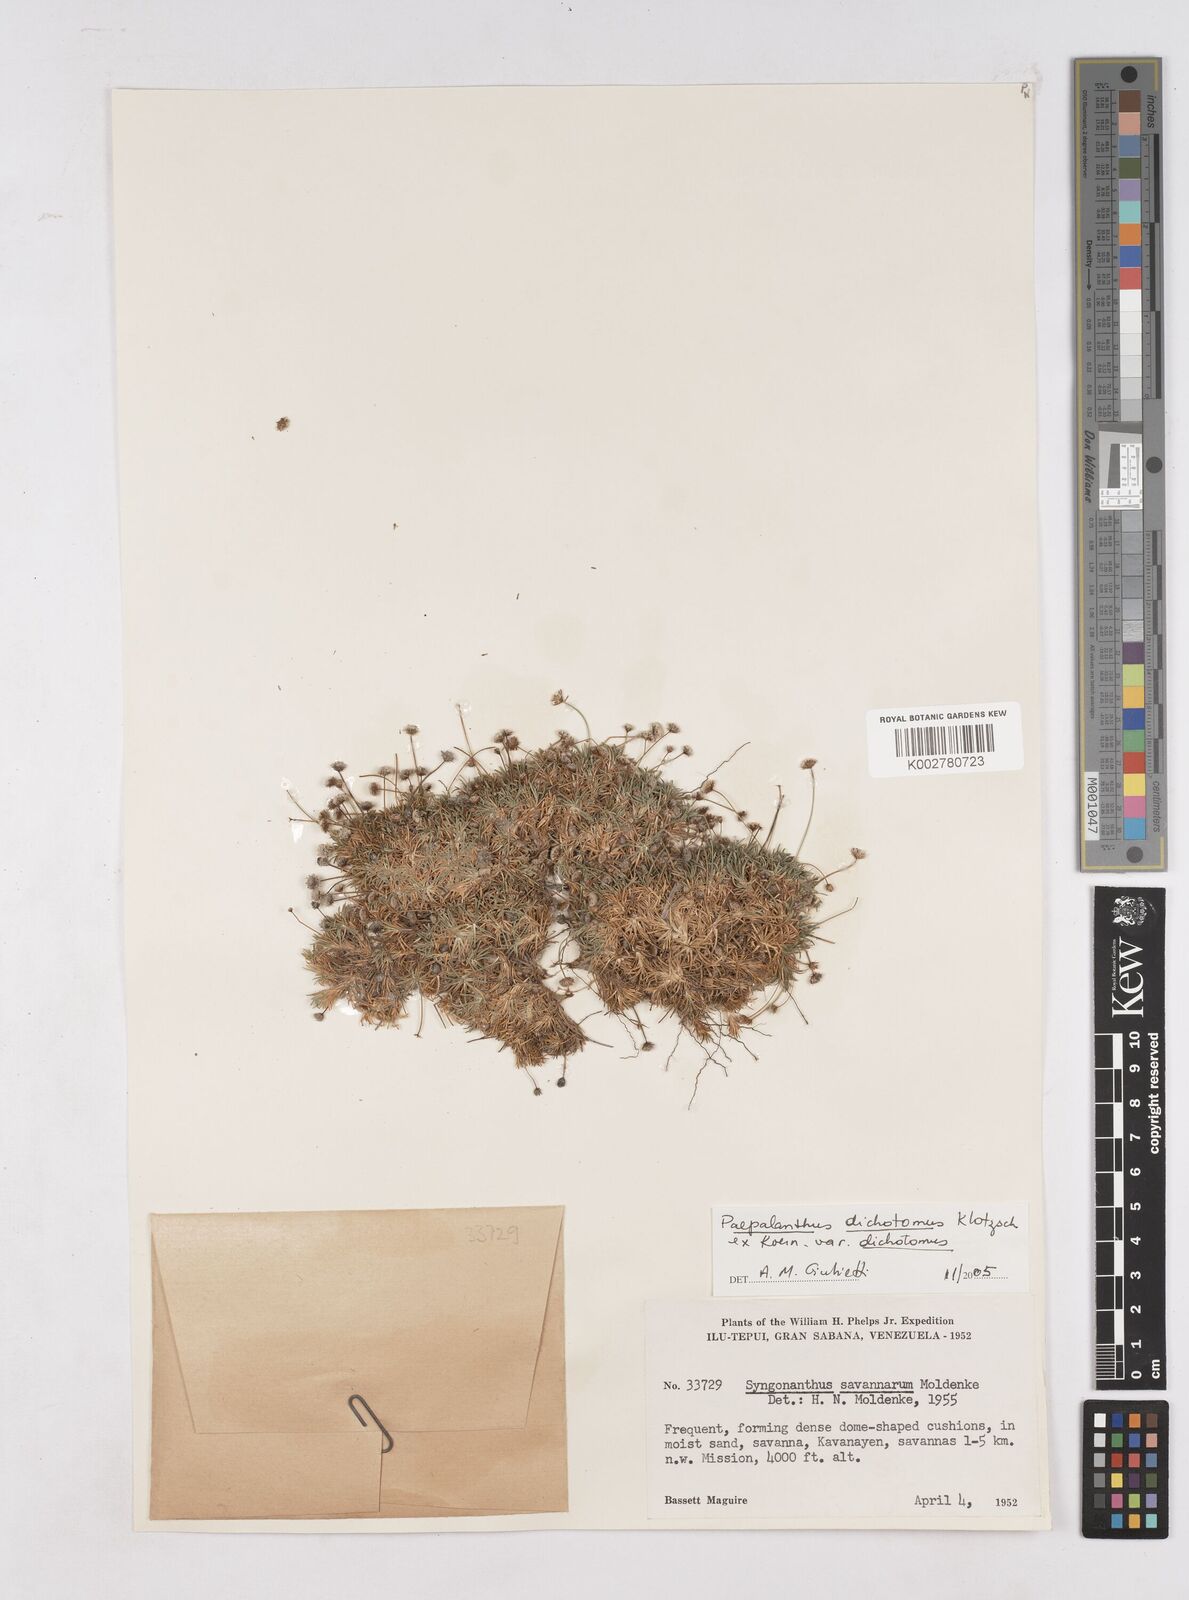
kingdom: Plantae
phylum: Tracheophyta
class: Liliopsida
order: Poales
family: Eriocaulaceae
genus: Paepalanthus
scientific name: Paepalanthus dichotomus
